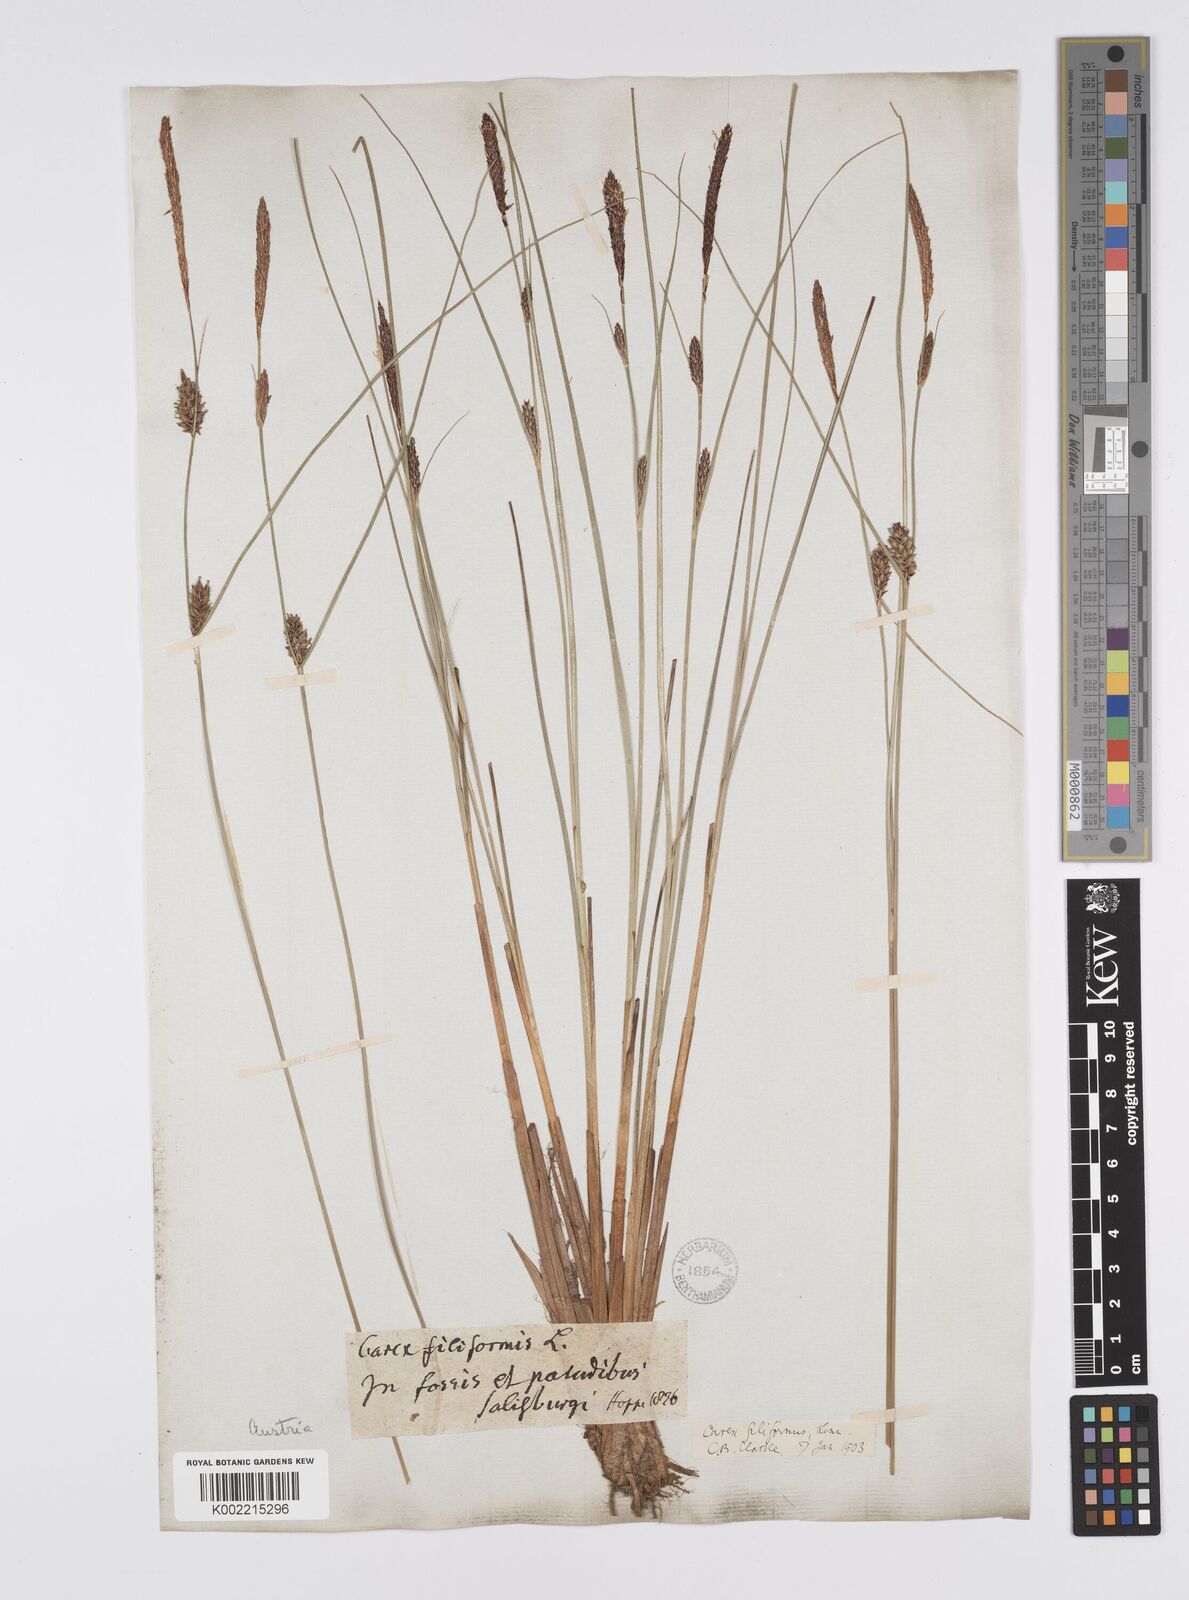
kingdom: Plantae
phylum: Tracheophyta
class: Liliopsida
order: Poales
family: Cyperaceae
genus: Carex
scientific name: Carex lasiocarpa
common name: Slender sedge
